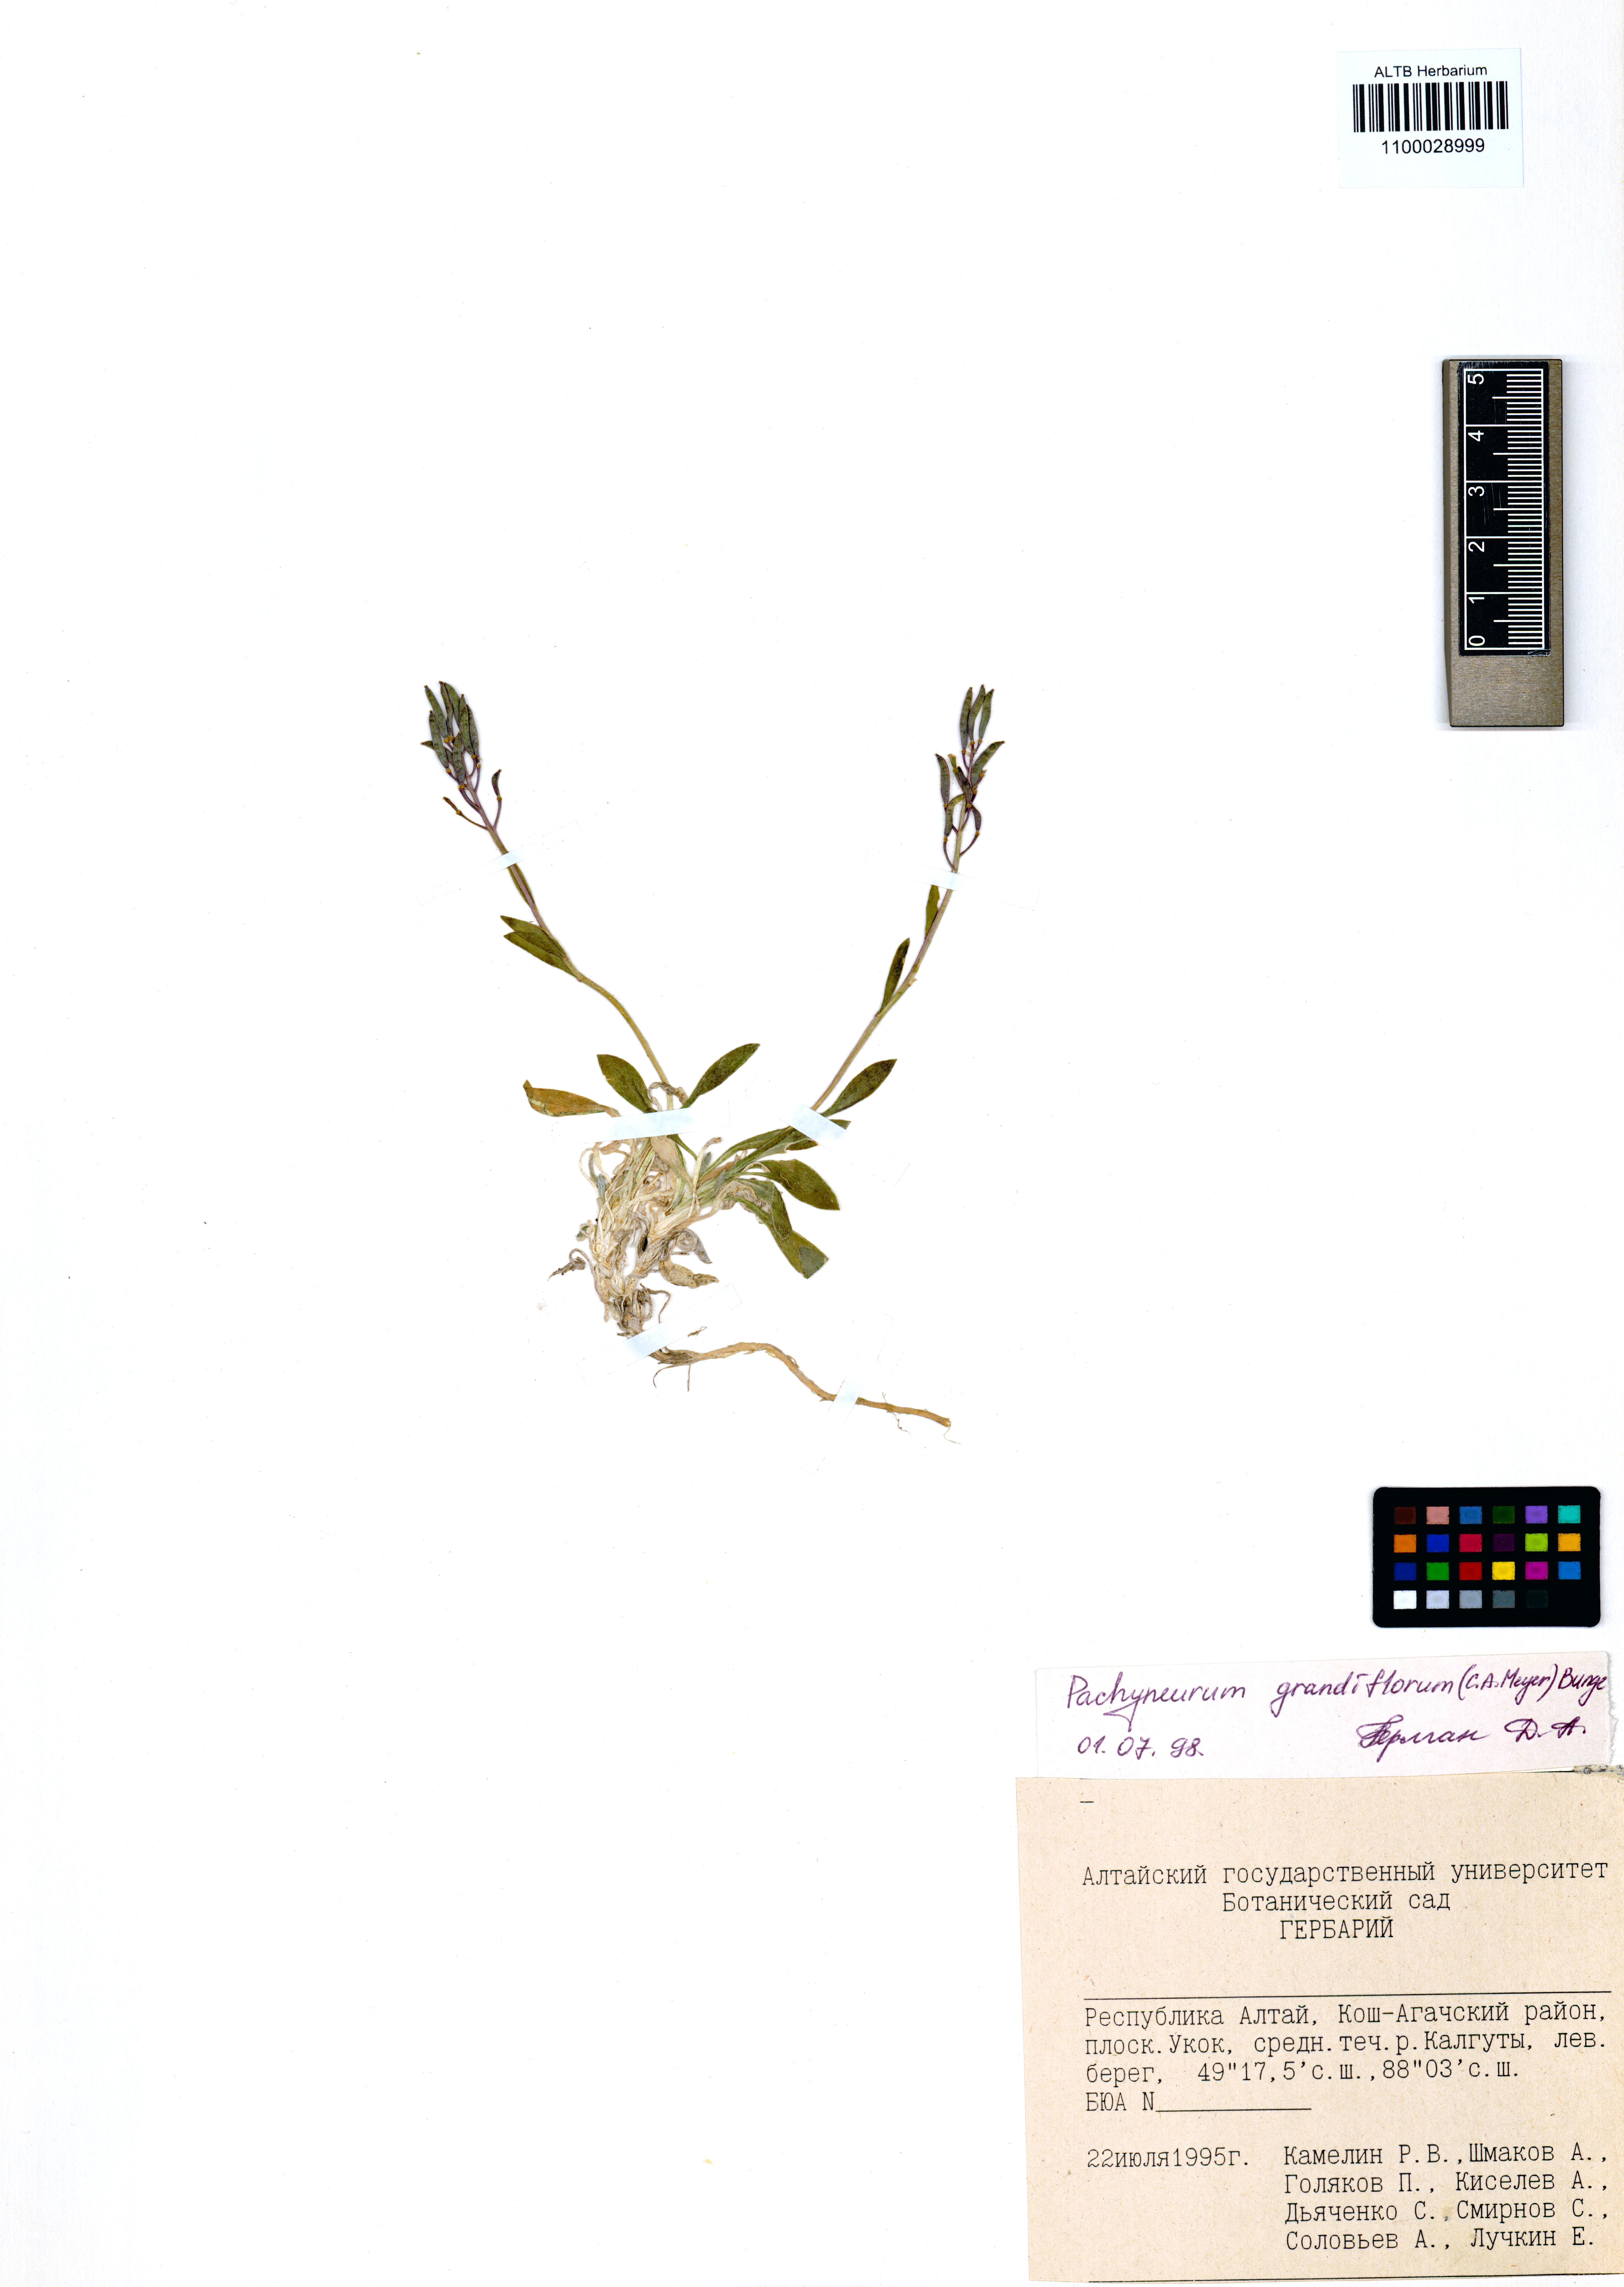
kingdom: Plantae
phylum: Tracheophyta
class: Magnoliopsida
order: Brassicales
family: Brassicaceae
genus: Pachyneurum
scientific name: Pachyneurum grandiflorum
